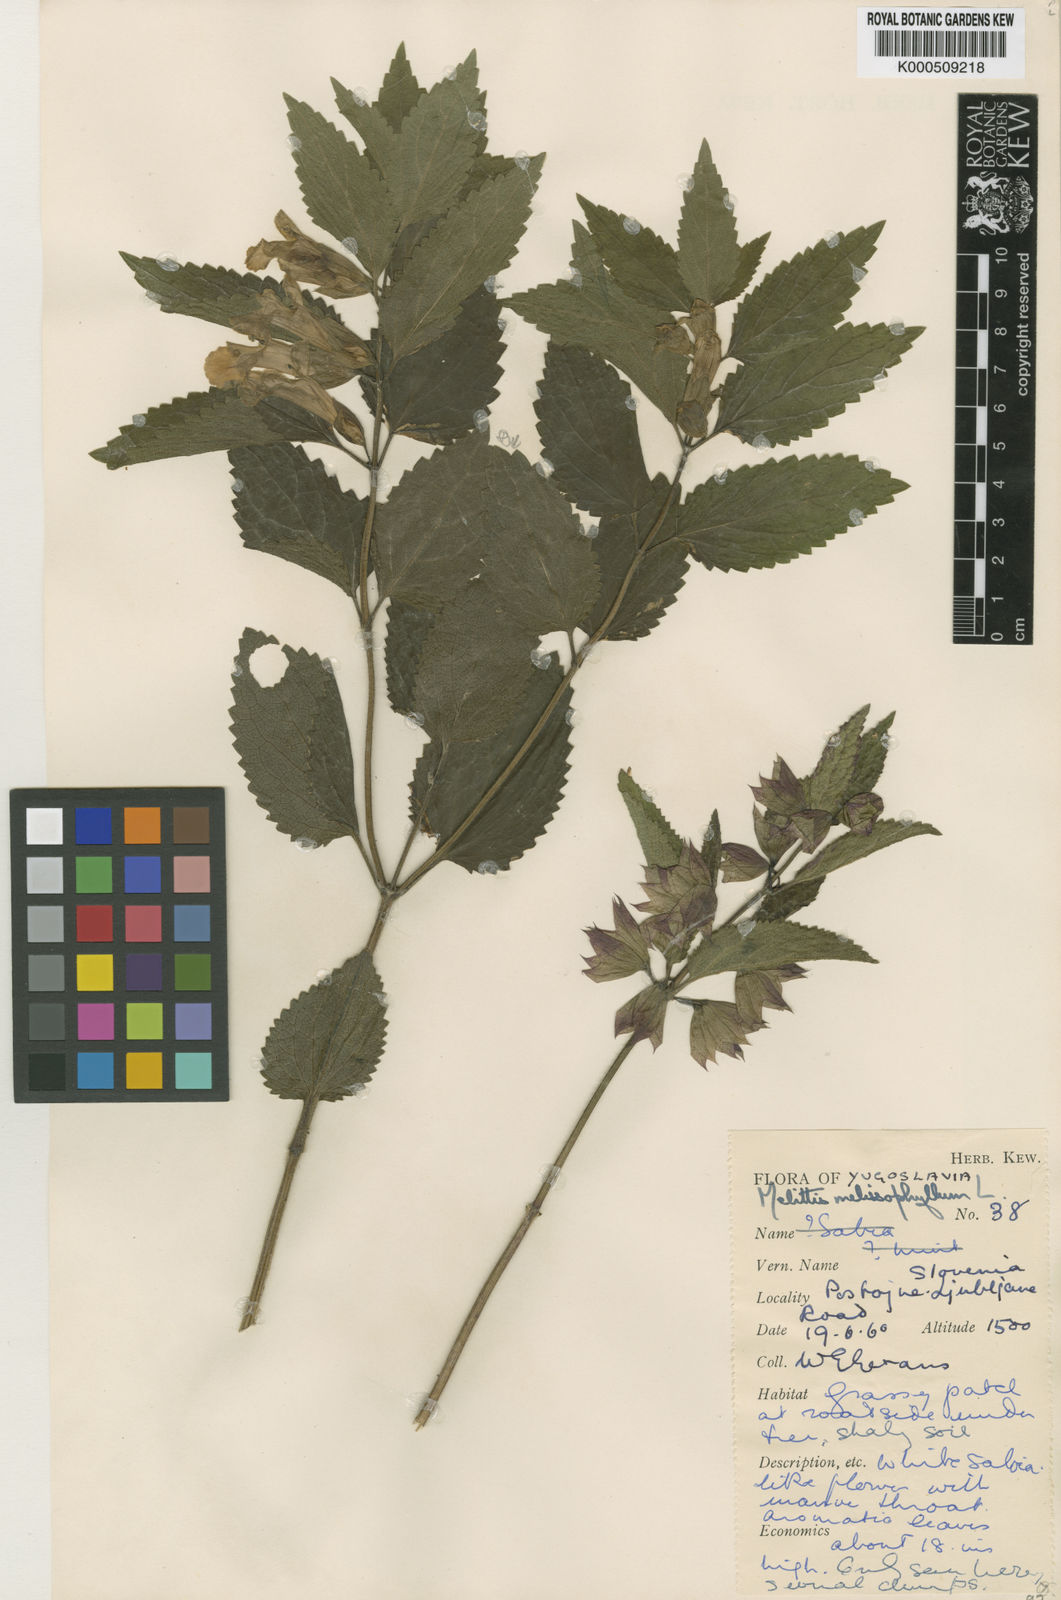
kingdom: Plantae
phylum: Tracheophyta
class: Magnoliopsida
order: Lamiales
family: Lamiaceae
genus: Melittis
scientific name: Melittis melissophyllum
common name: Bastard balm
